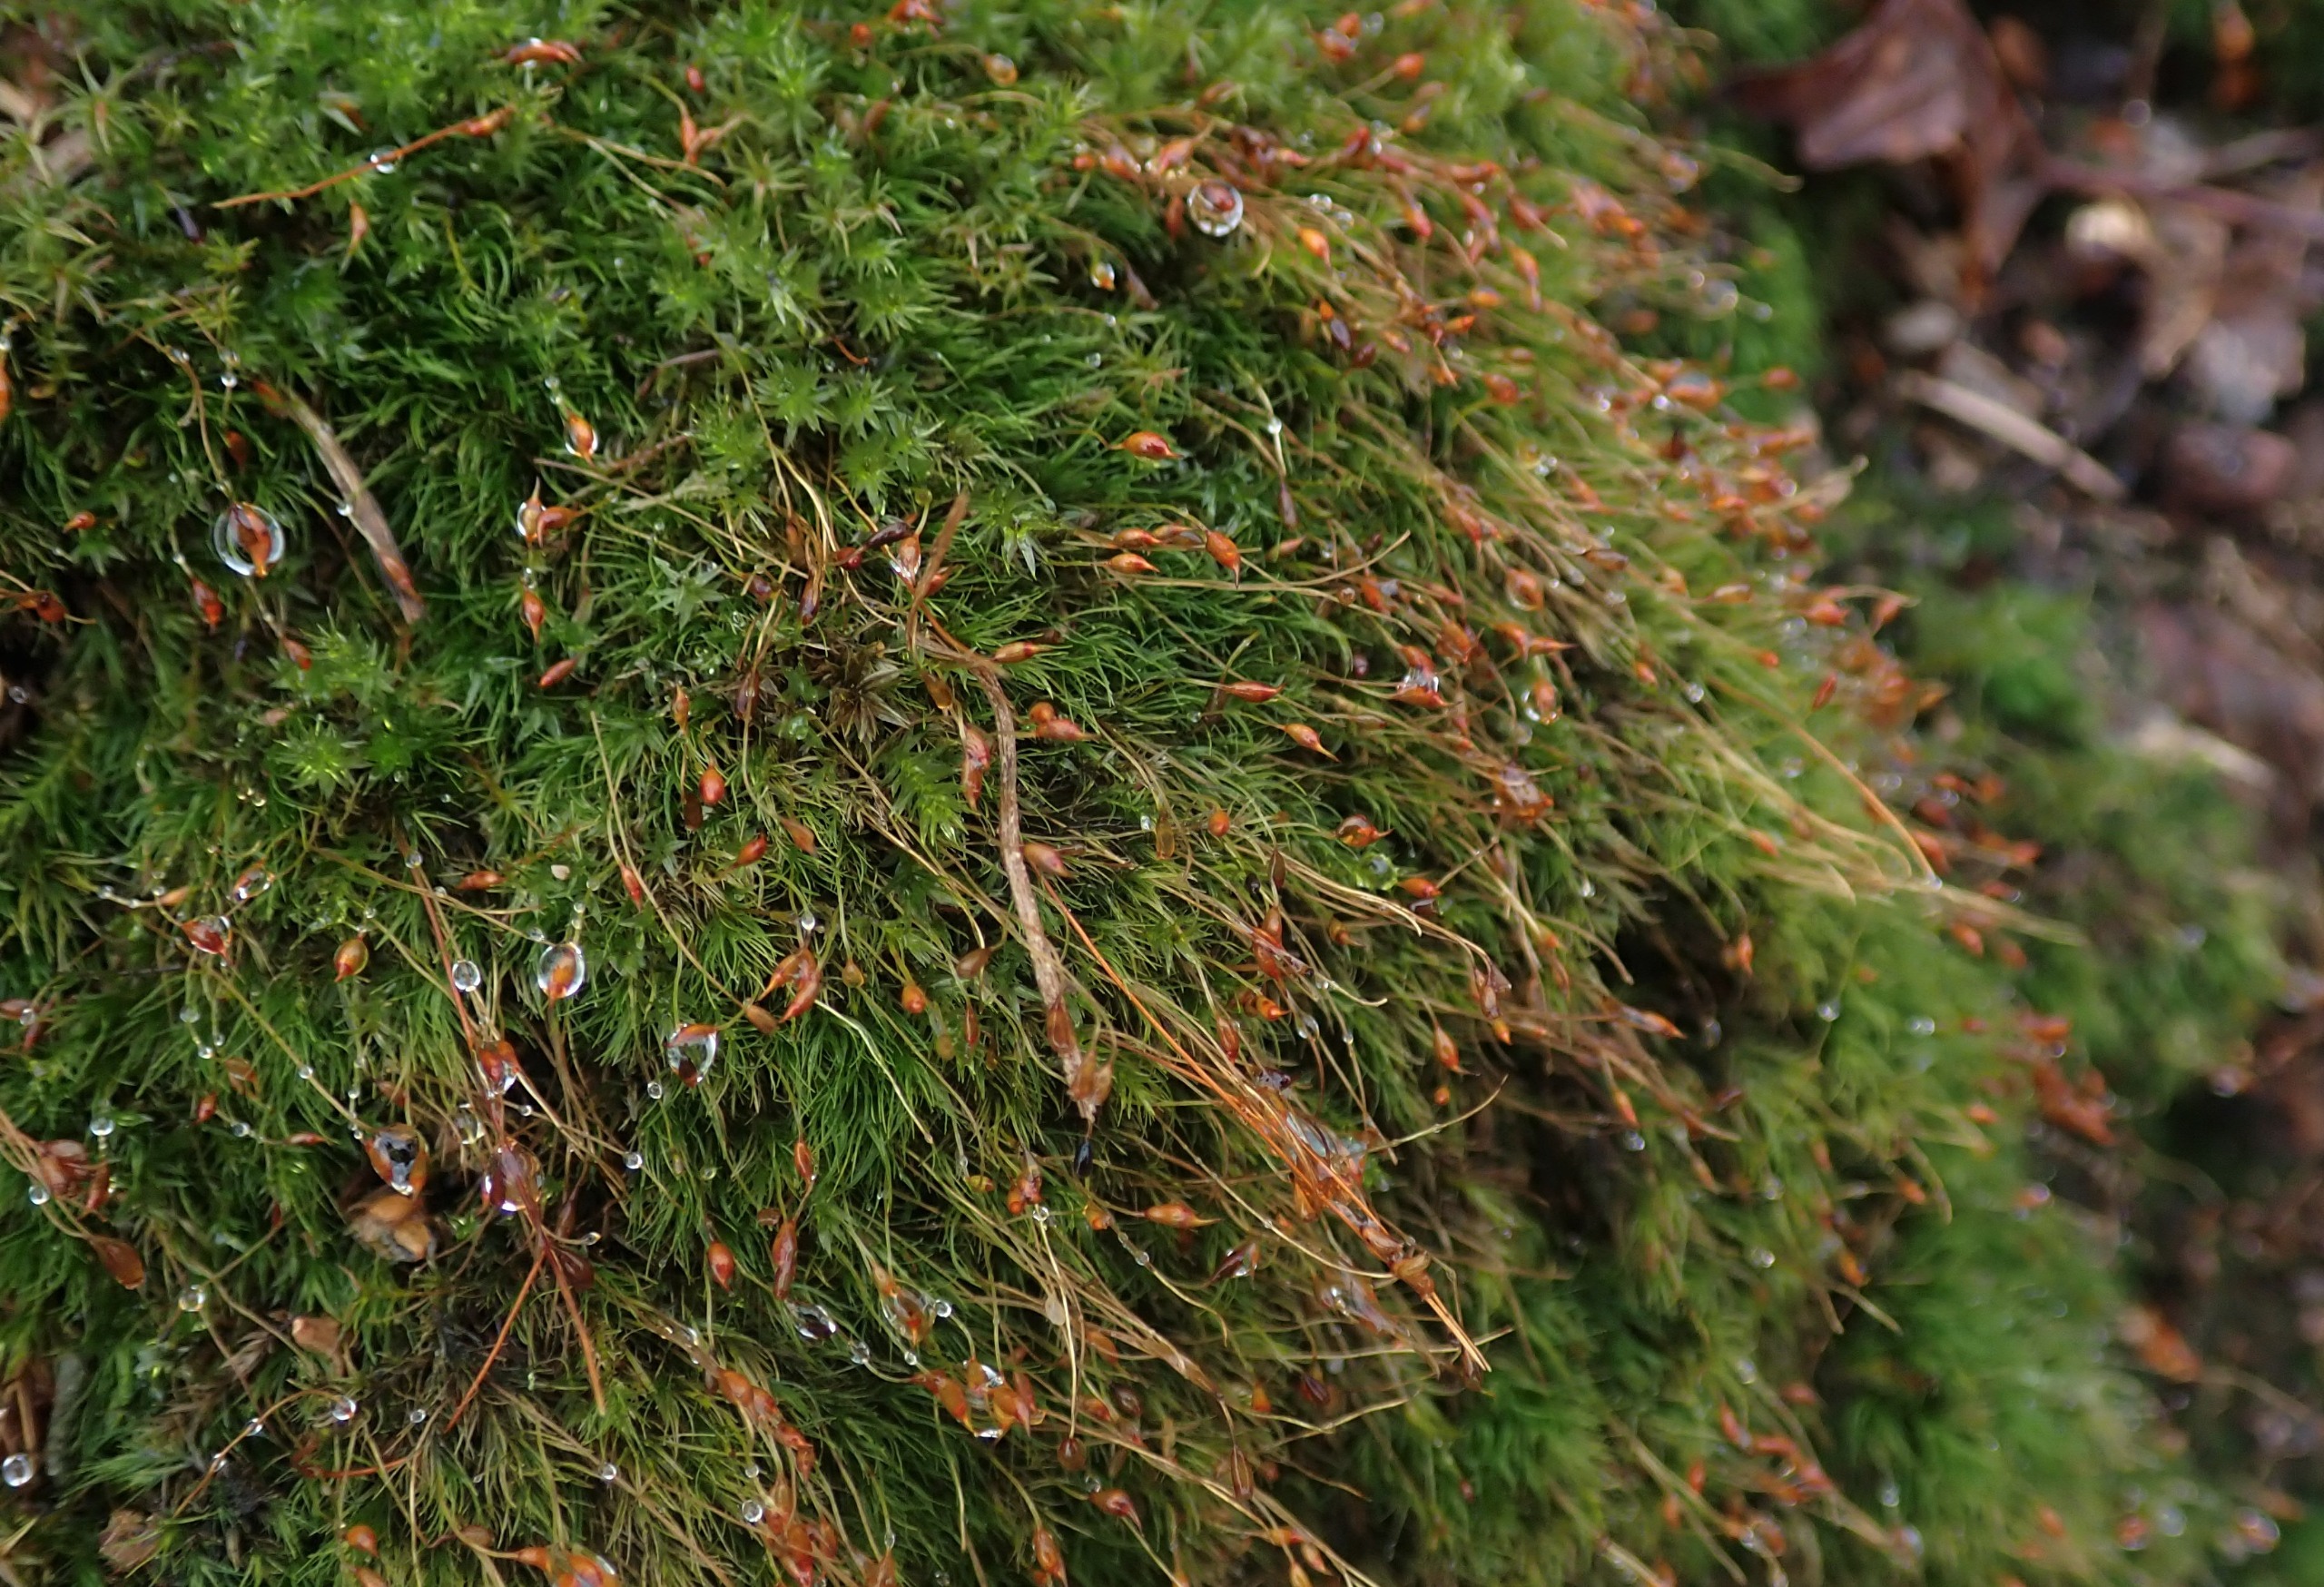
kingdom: Plantae
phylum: Bryophyta
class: Bryopsida
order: Dicranales
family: Dicranellaceae
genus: Dicranella
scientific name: Dicranella heteromalla
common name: Almindelig fløjlsmos
